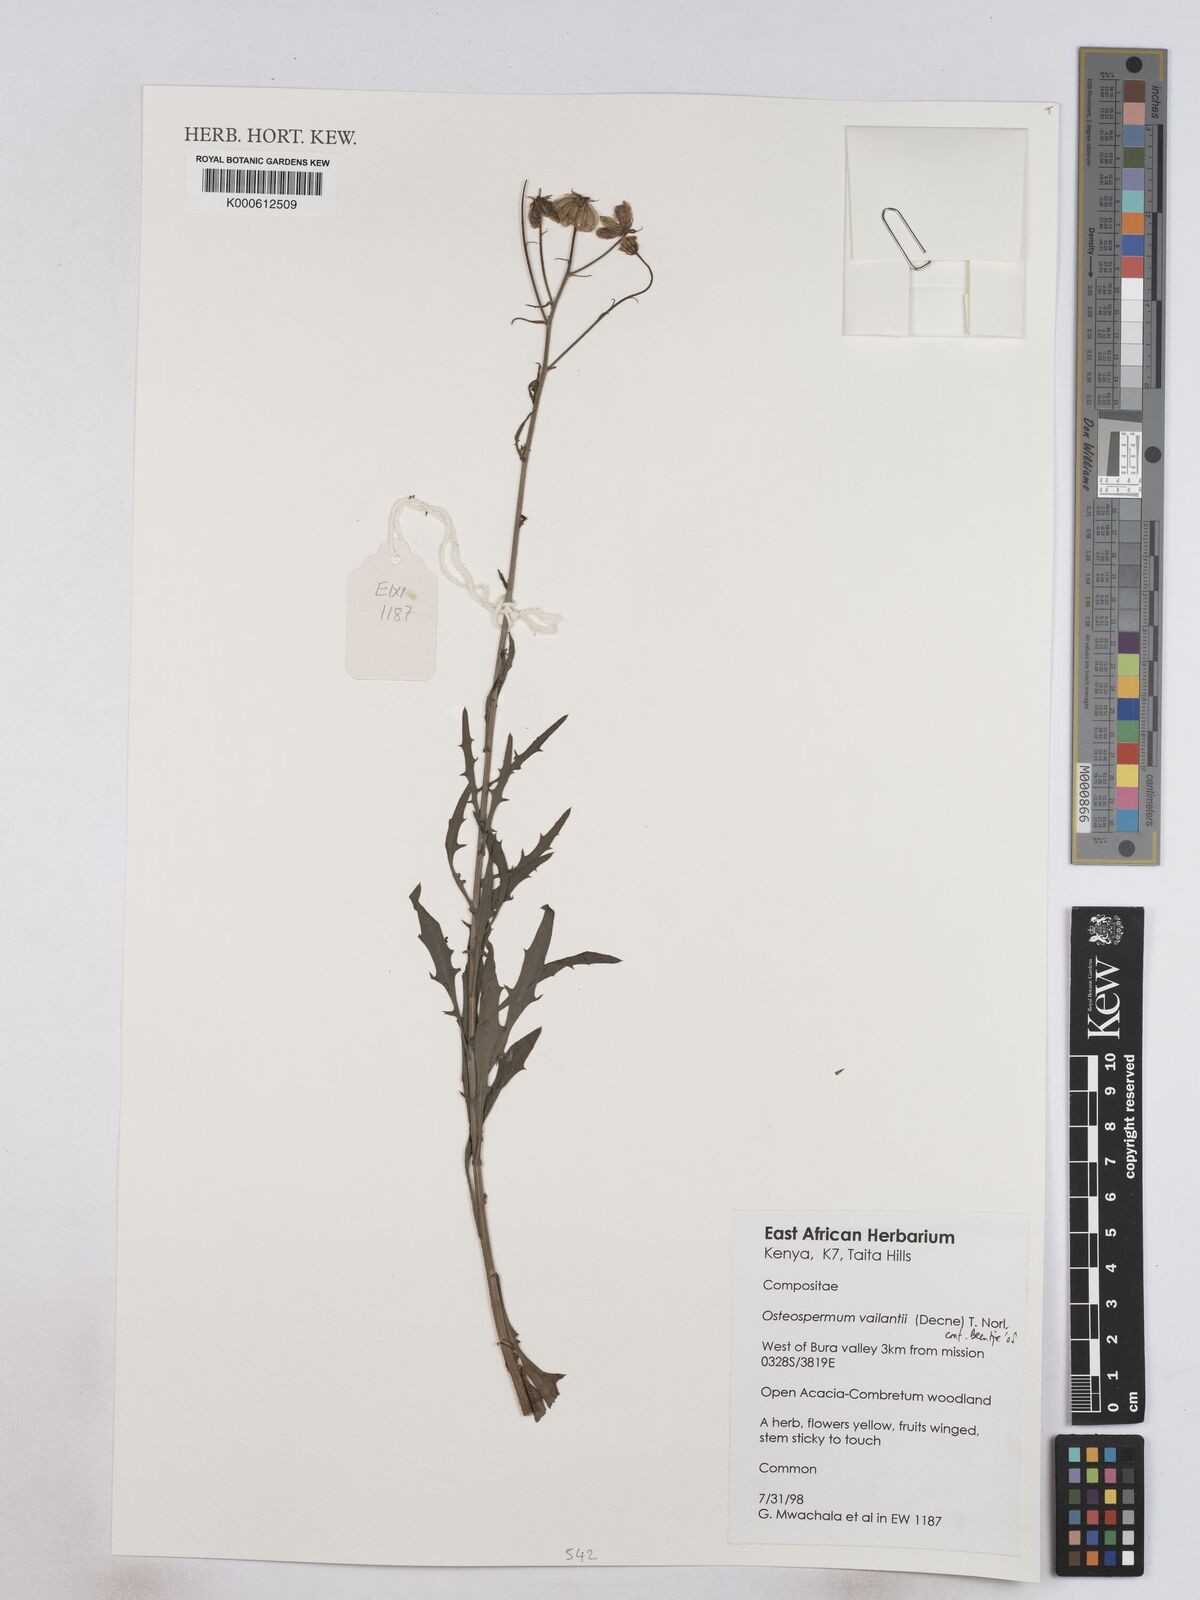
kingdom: Plantae
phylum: Tracheophyta
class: Magnoliopsida
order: Asterales
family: Asteraceae
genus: Osteospermum
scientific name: Osteospermum vaillantii
